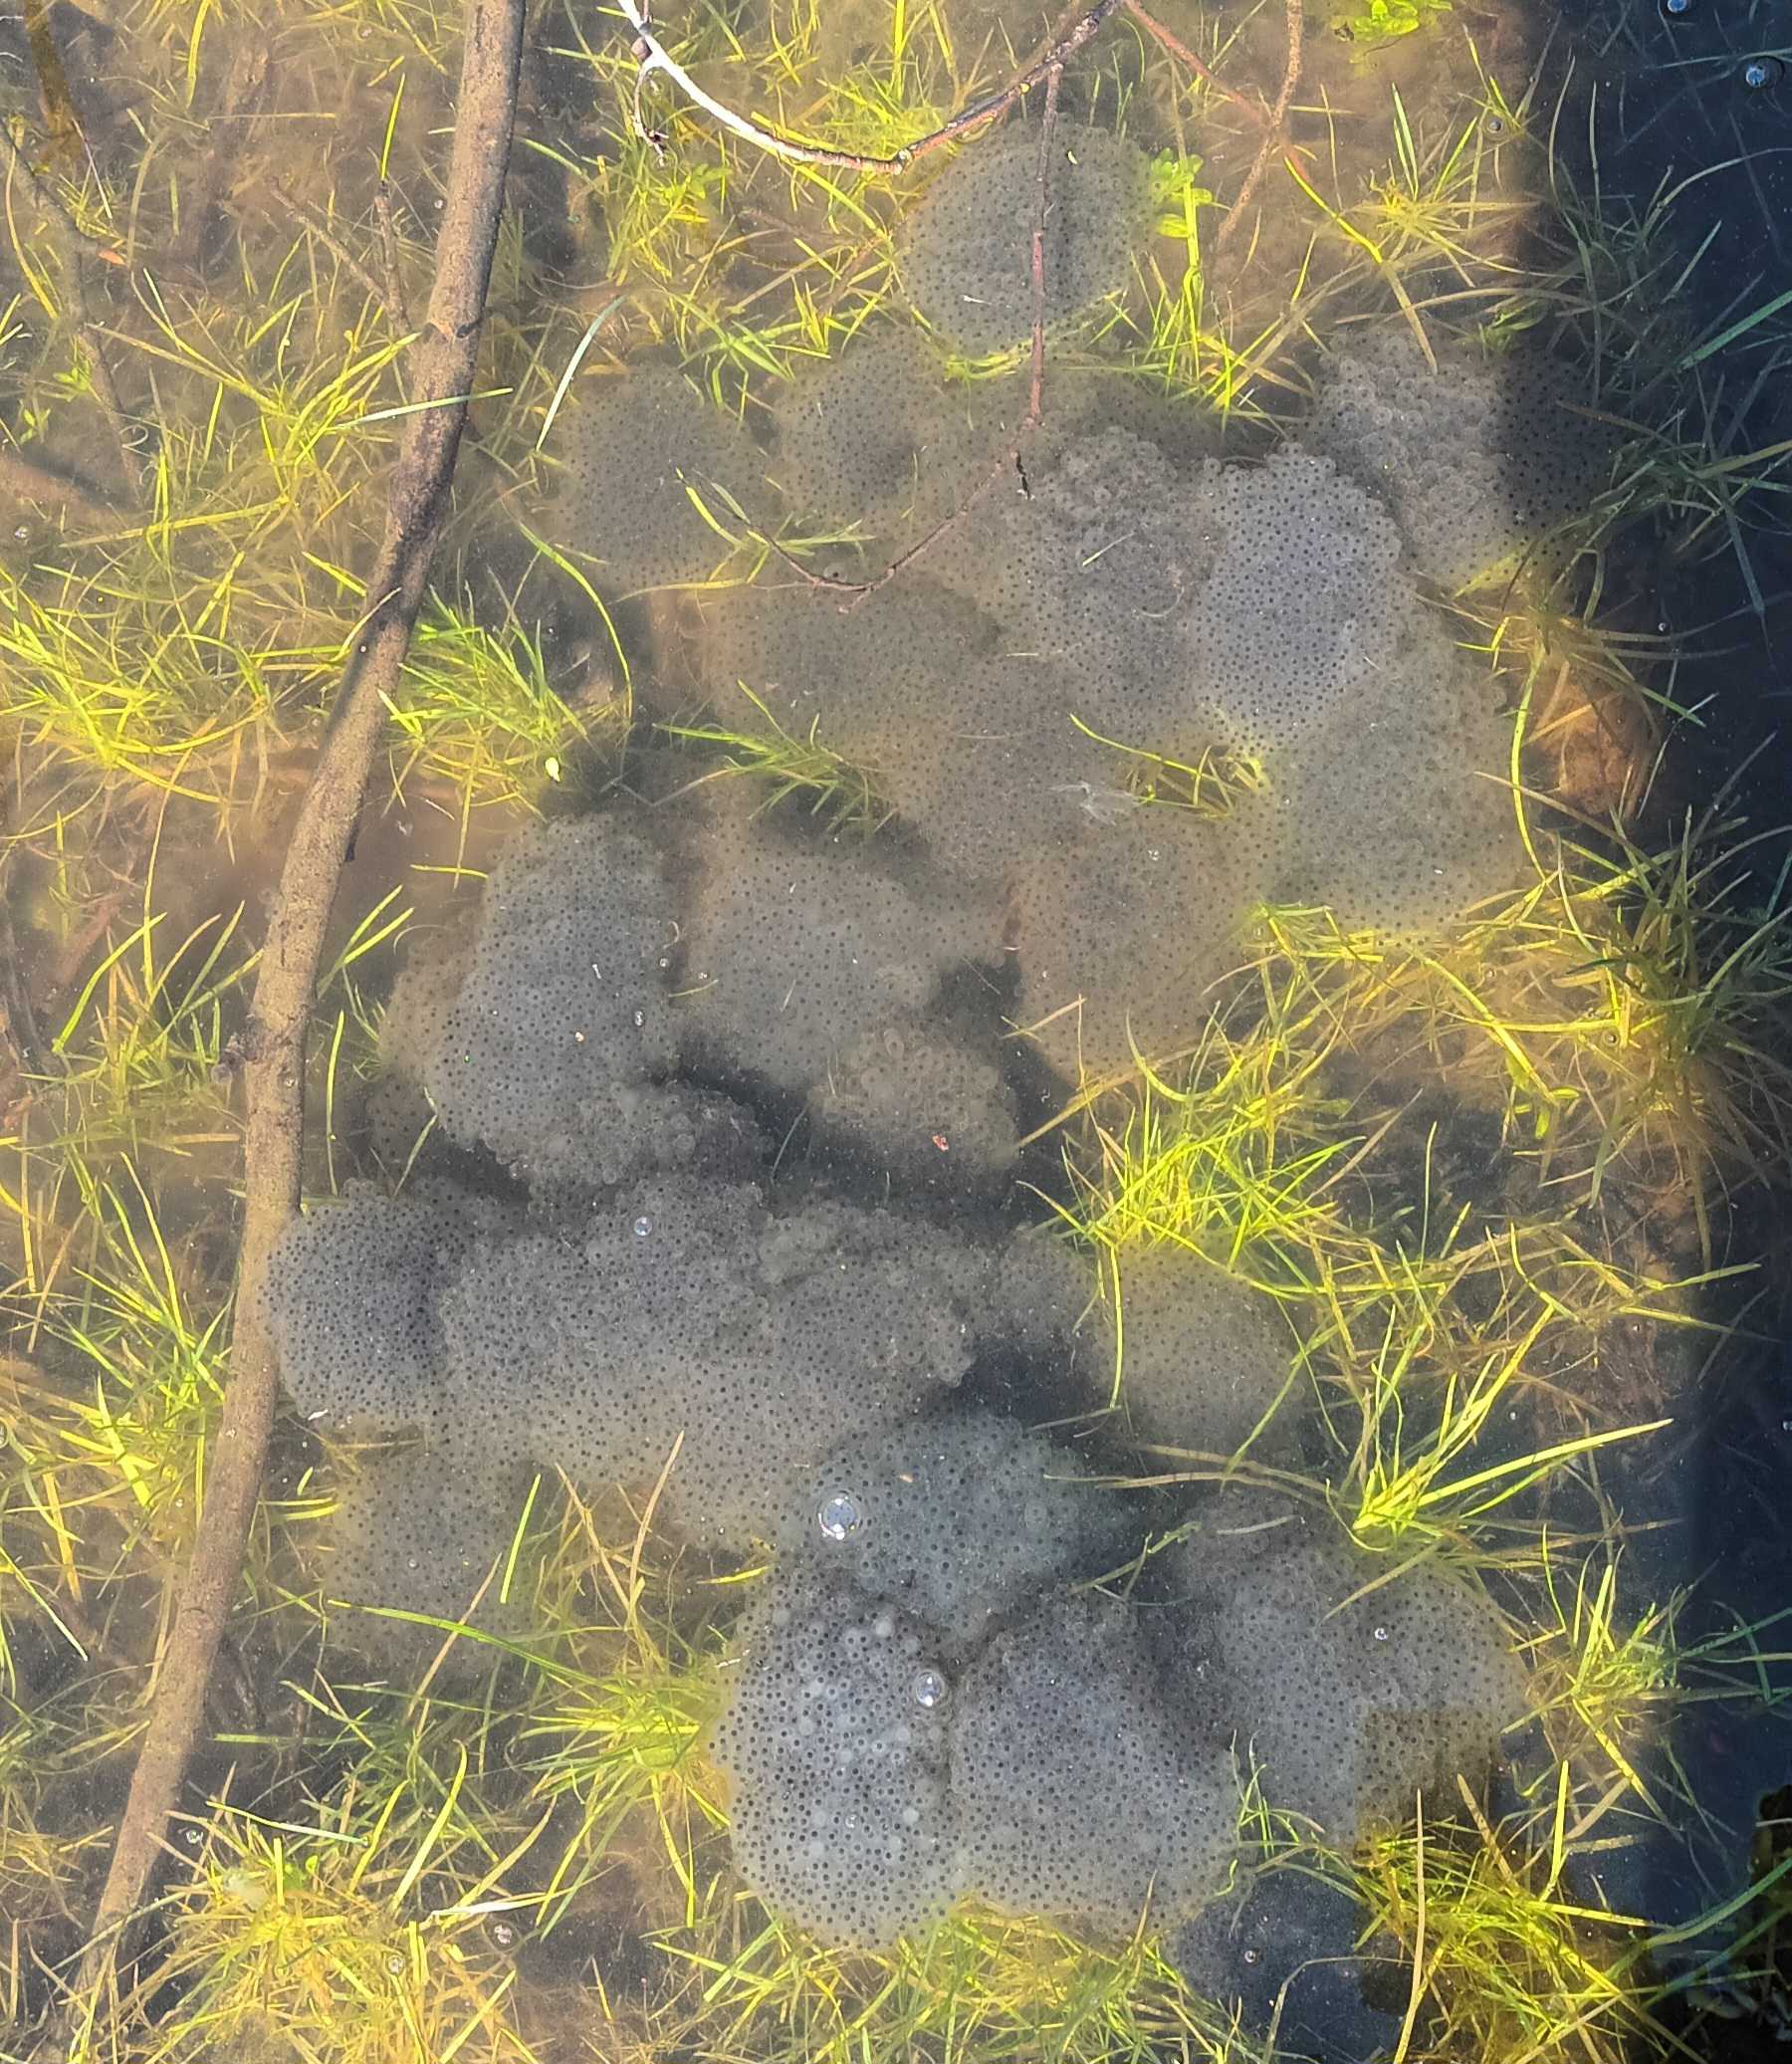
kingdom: Animalia
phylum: Chordata
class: Amphibia
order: Anura
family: Ranidae
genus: Rana
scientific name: Rana temporaria
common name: Butsnudet frø
